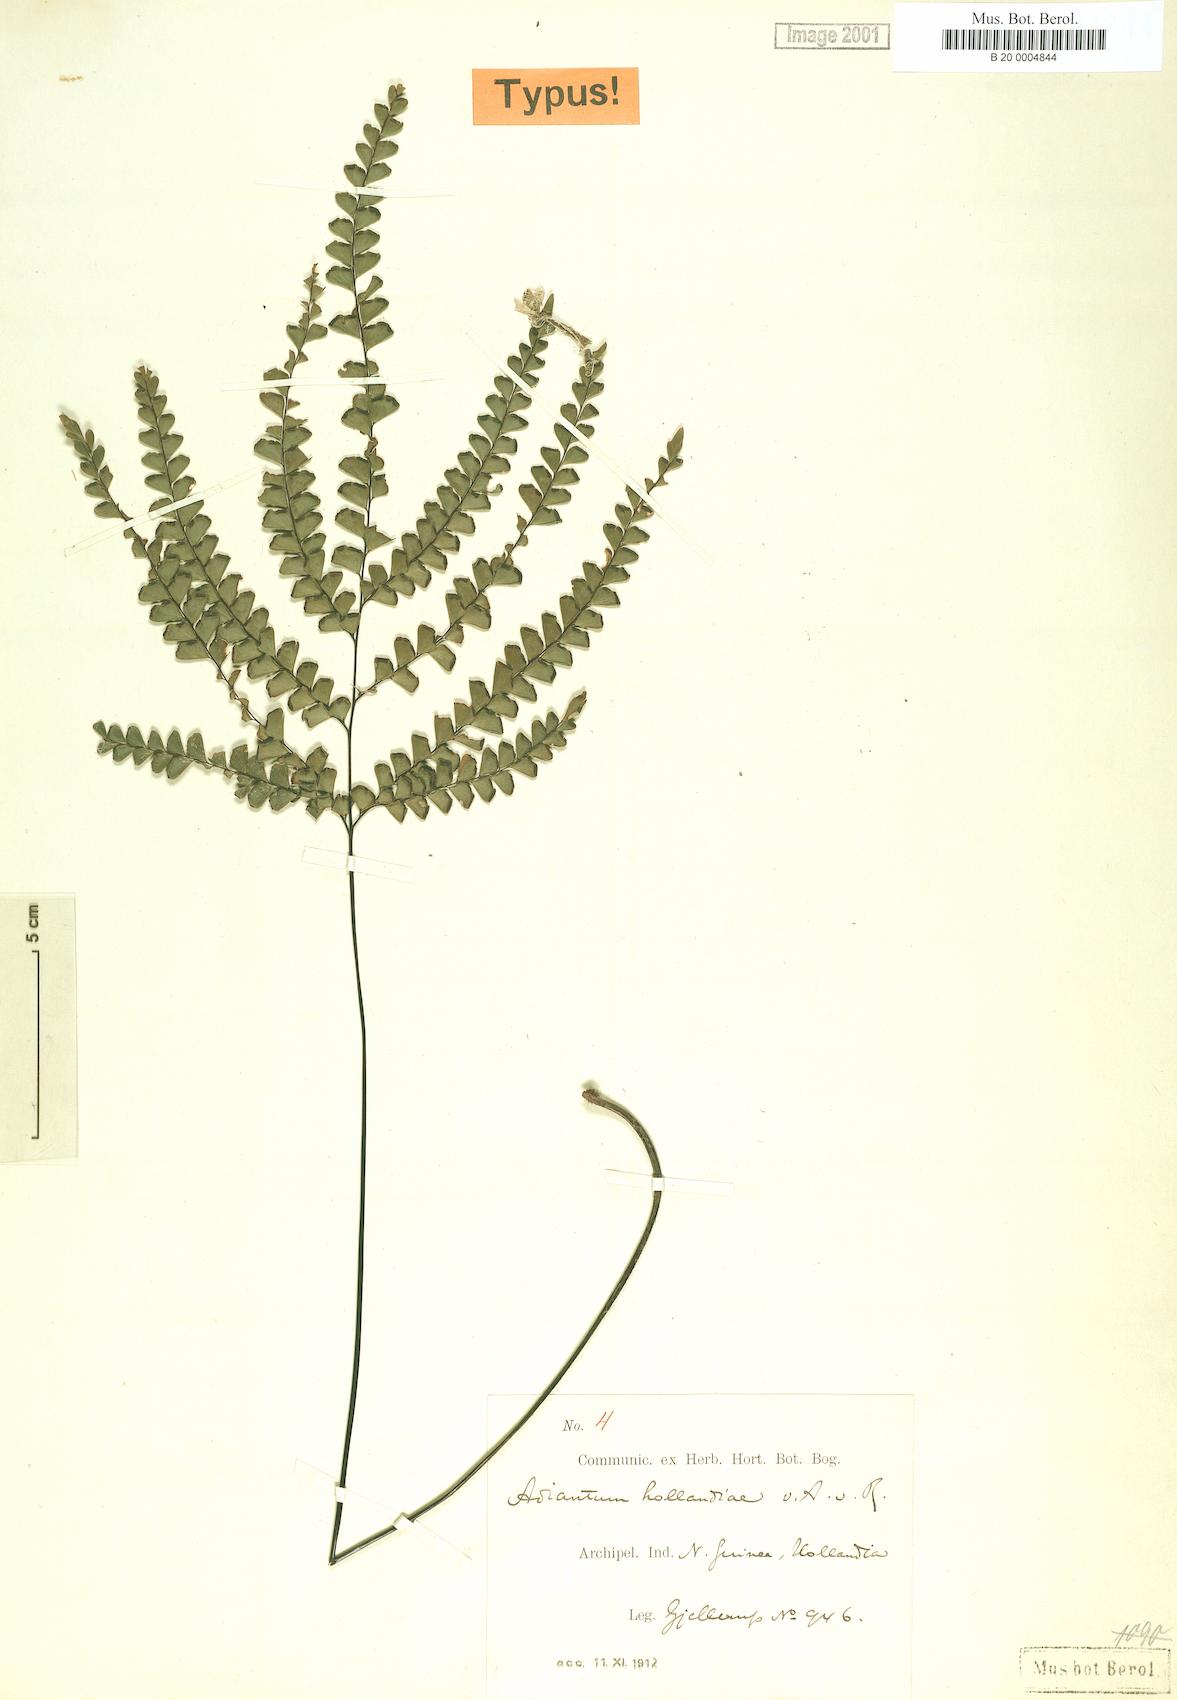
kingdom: Plantae
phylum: Tracheophyta
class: Polypodiopsida
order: Polypodiales
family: Pteridaceae
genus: Adiantum
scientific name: Adiantum hollandiae
